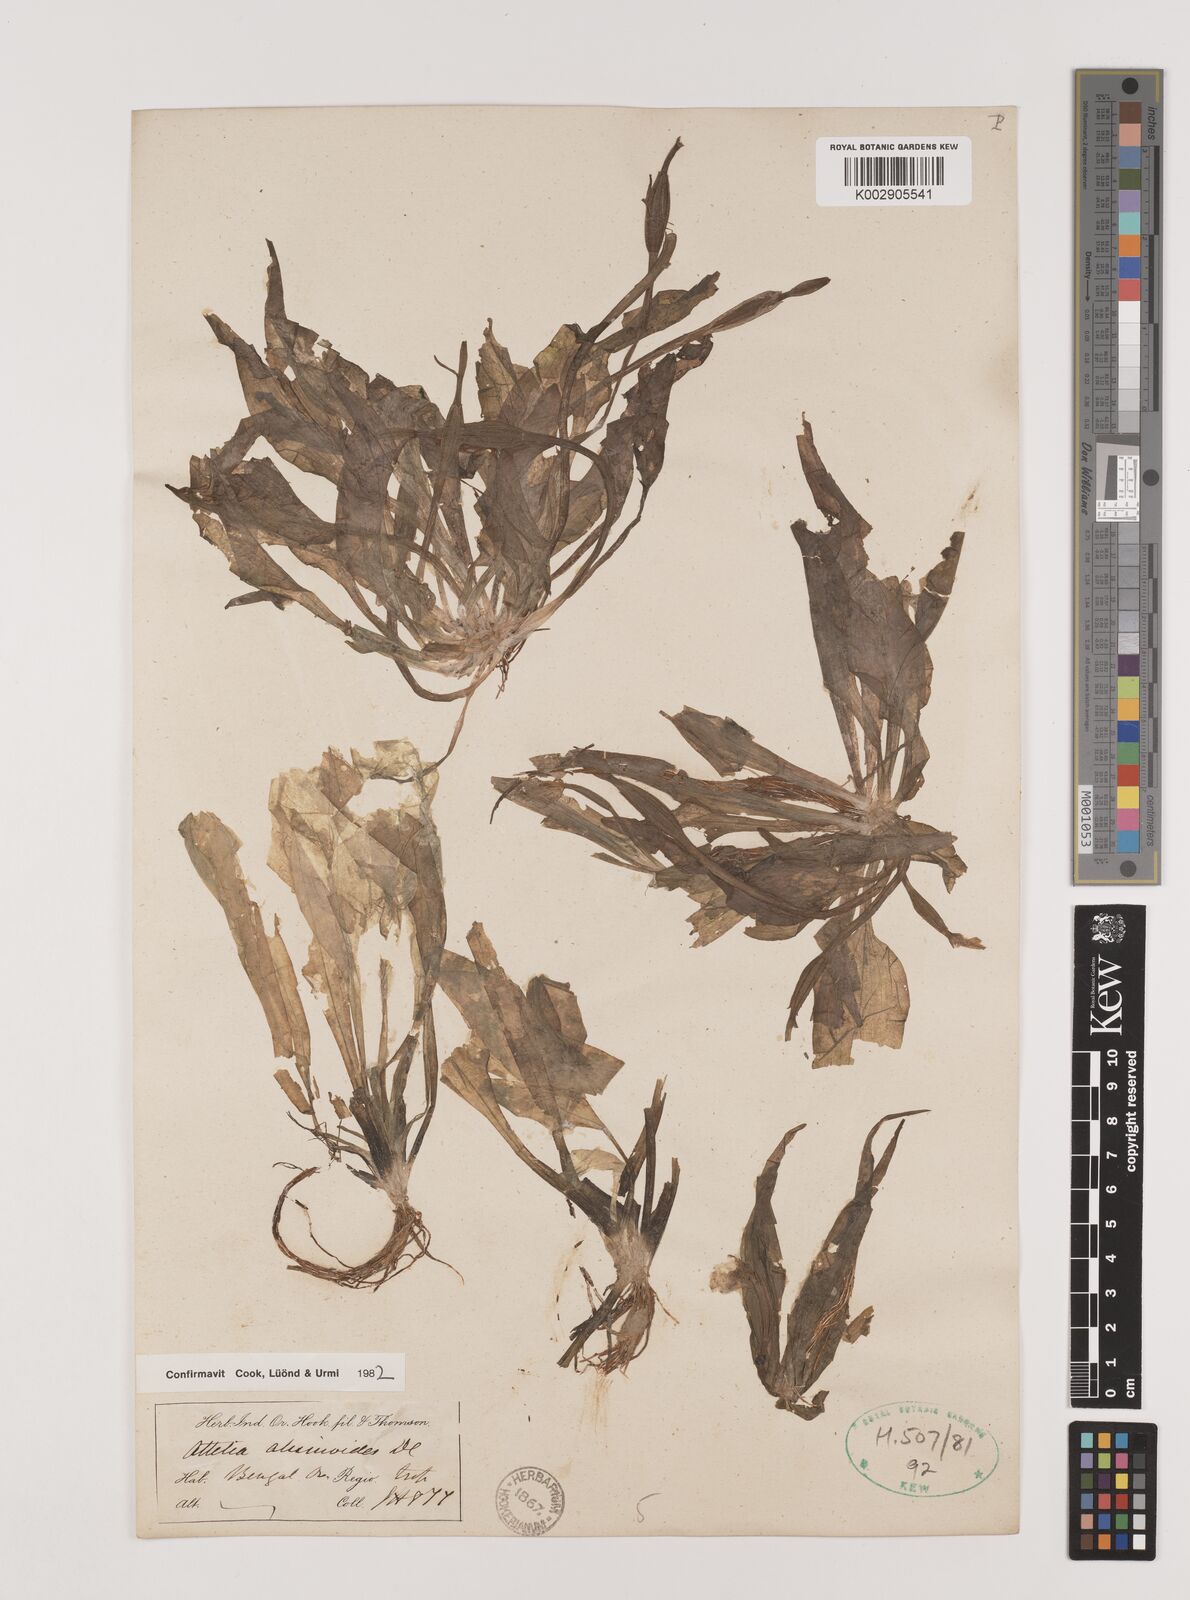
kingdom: Plantae
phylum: Tracheophyta
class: Liliopsida
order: Alismatales
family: Hydrocharitaceae
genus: Ottelia
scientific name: Ottelia alismoides
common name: Duck-lettuce
